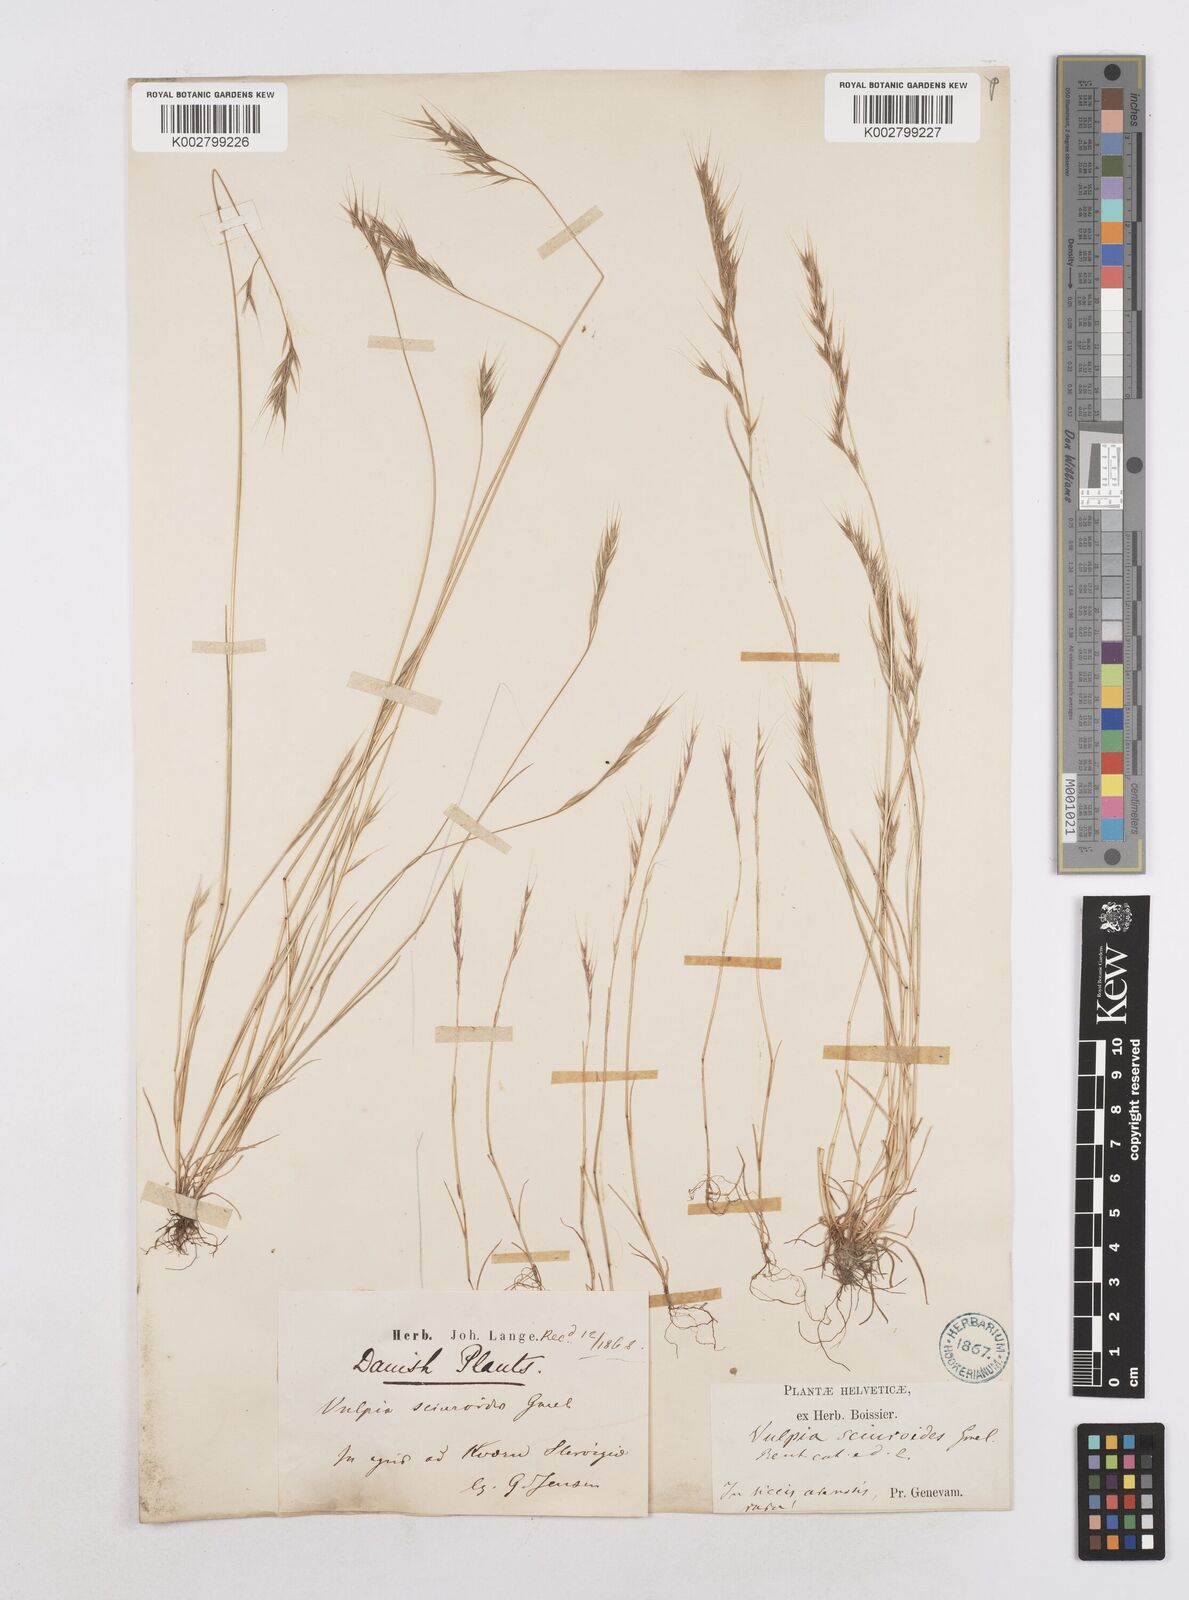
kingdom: Plantae
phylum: Tracheophyta
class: Liliopsida
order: Poales
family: Poaceae
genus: Festuca
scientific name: Festuca bromoides
